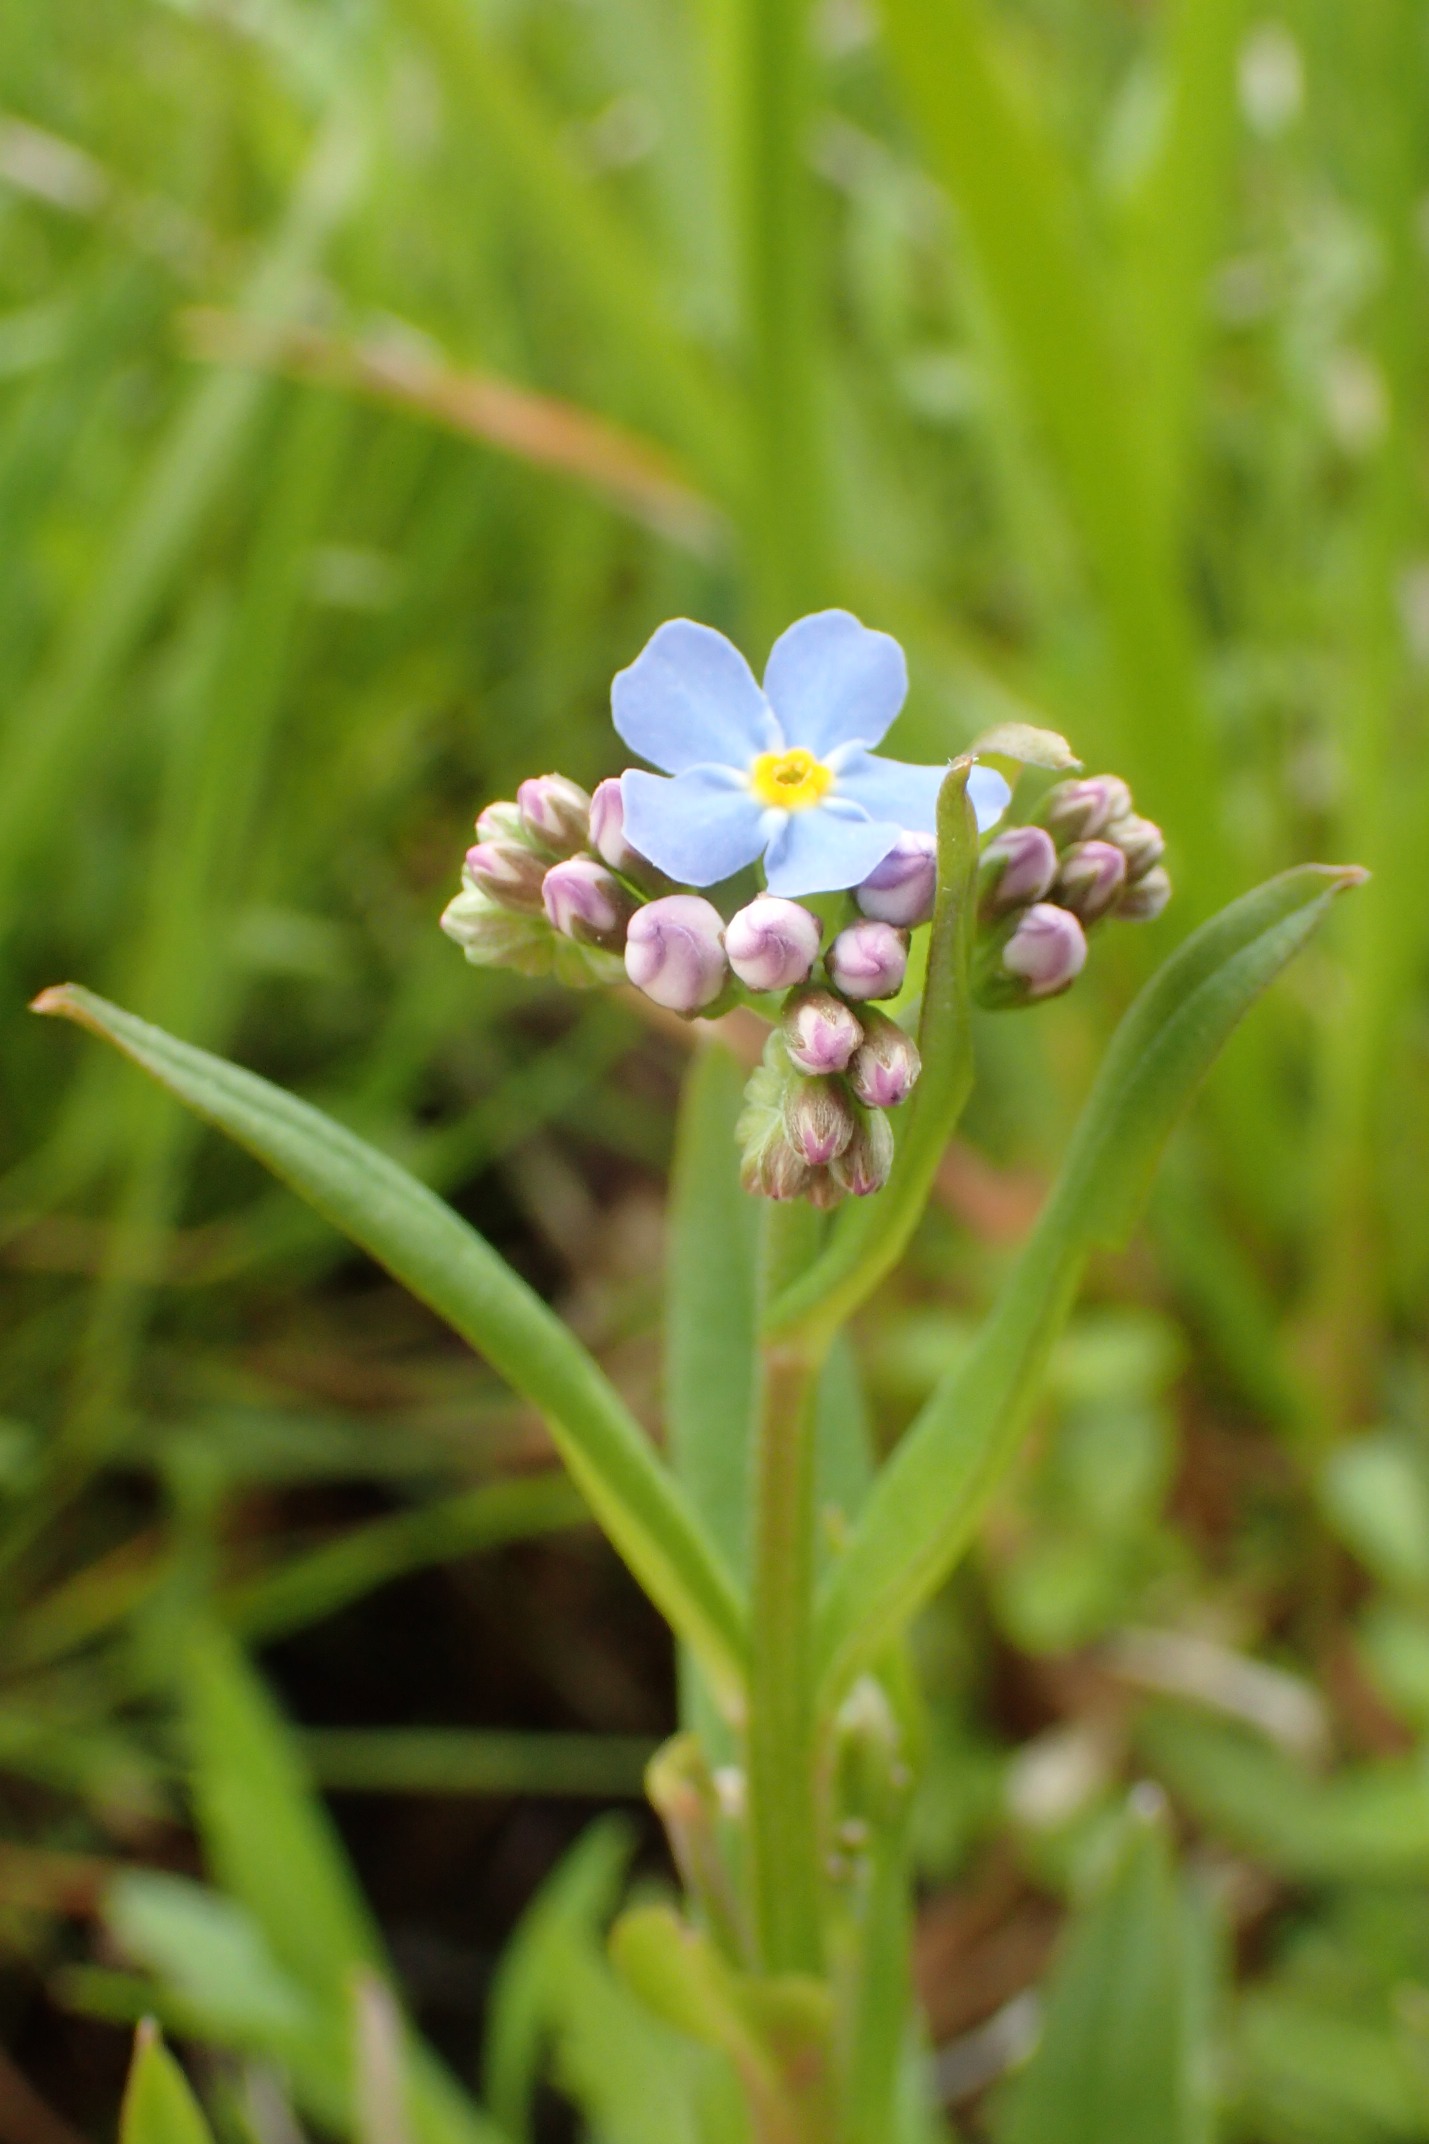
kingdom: Plantae
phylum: Tracheophyta
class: Magnoliopsida
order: Boraginales
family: Boraginaceae
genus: Myosotis
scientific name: Myosotis scorpioides
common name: Eng-forglemmigej
